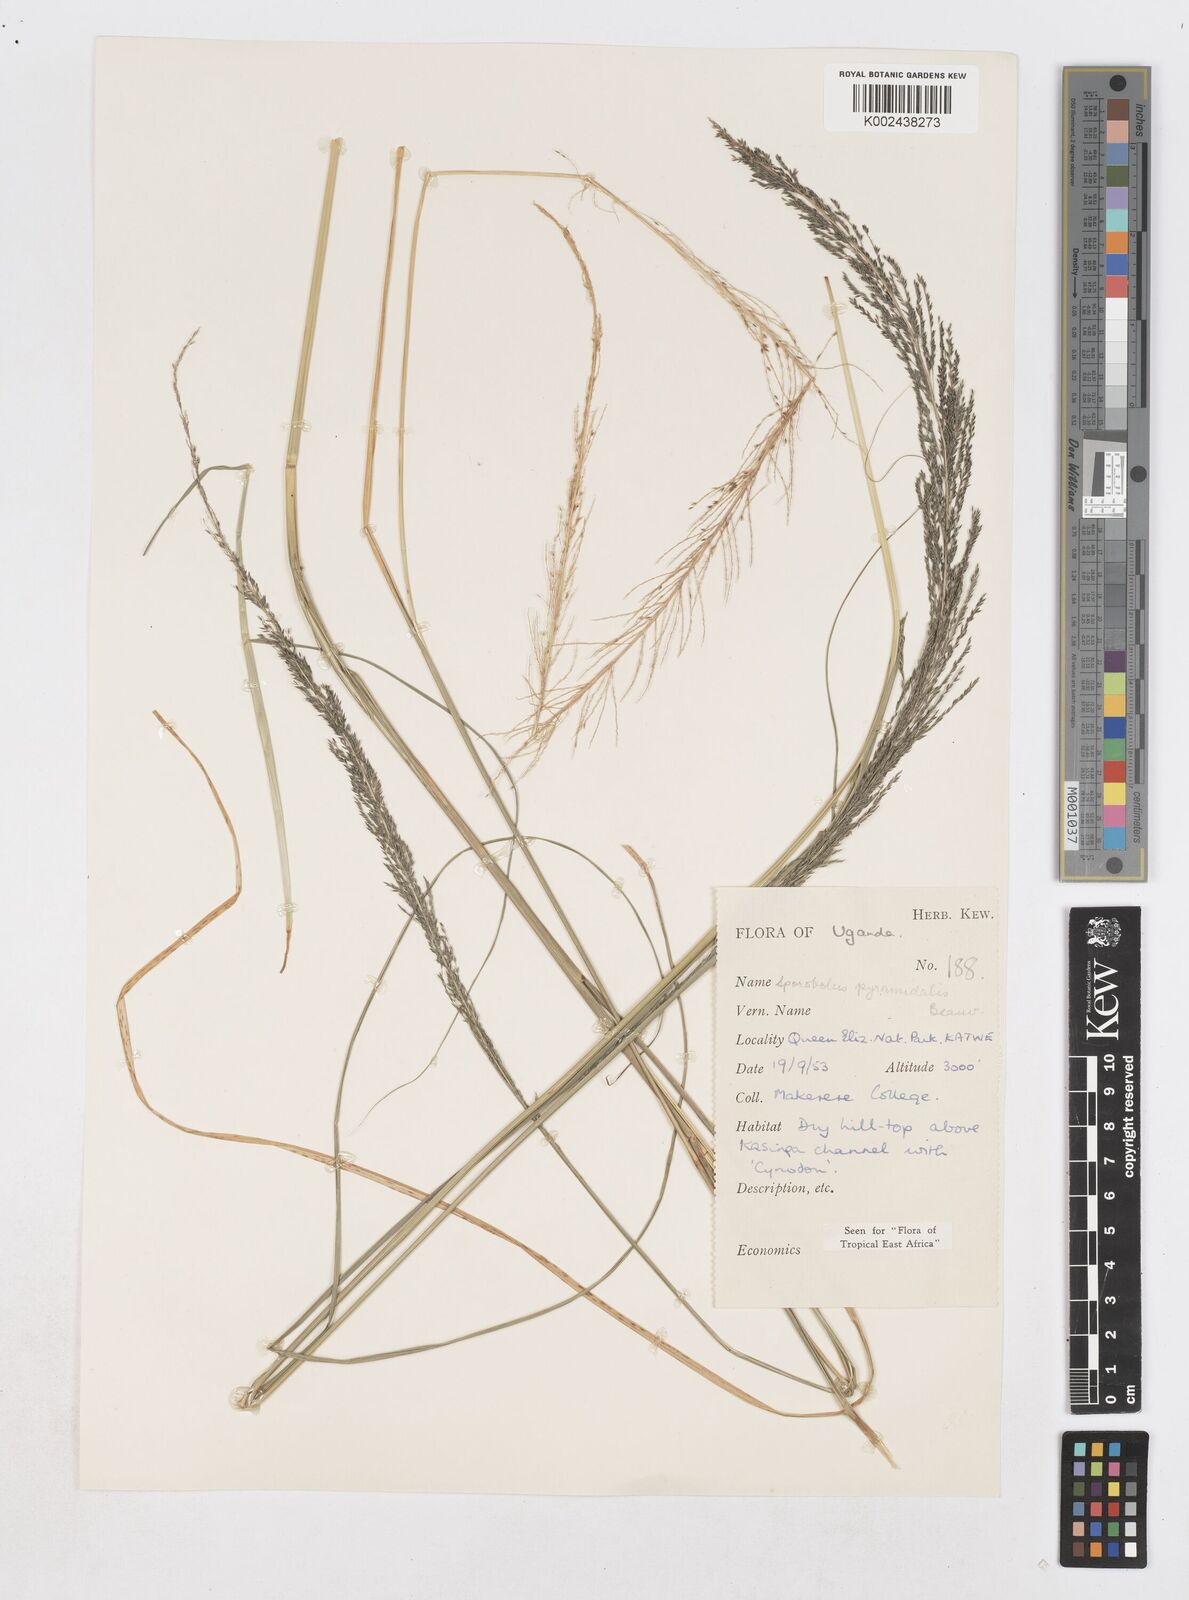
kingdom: Plantae
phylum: Tracheophyta
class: Liliopsida
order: Poales
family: Poaceae
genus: Sporobolus
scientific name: Sporobolus pyramidalis
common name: West indian dropseed
